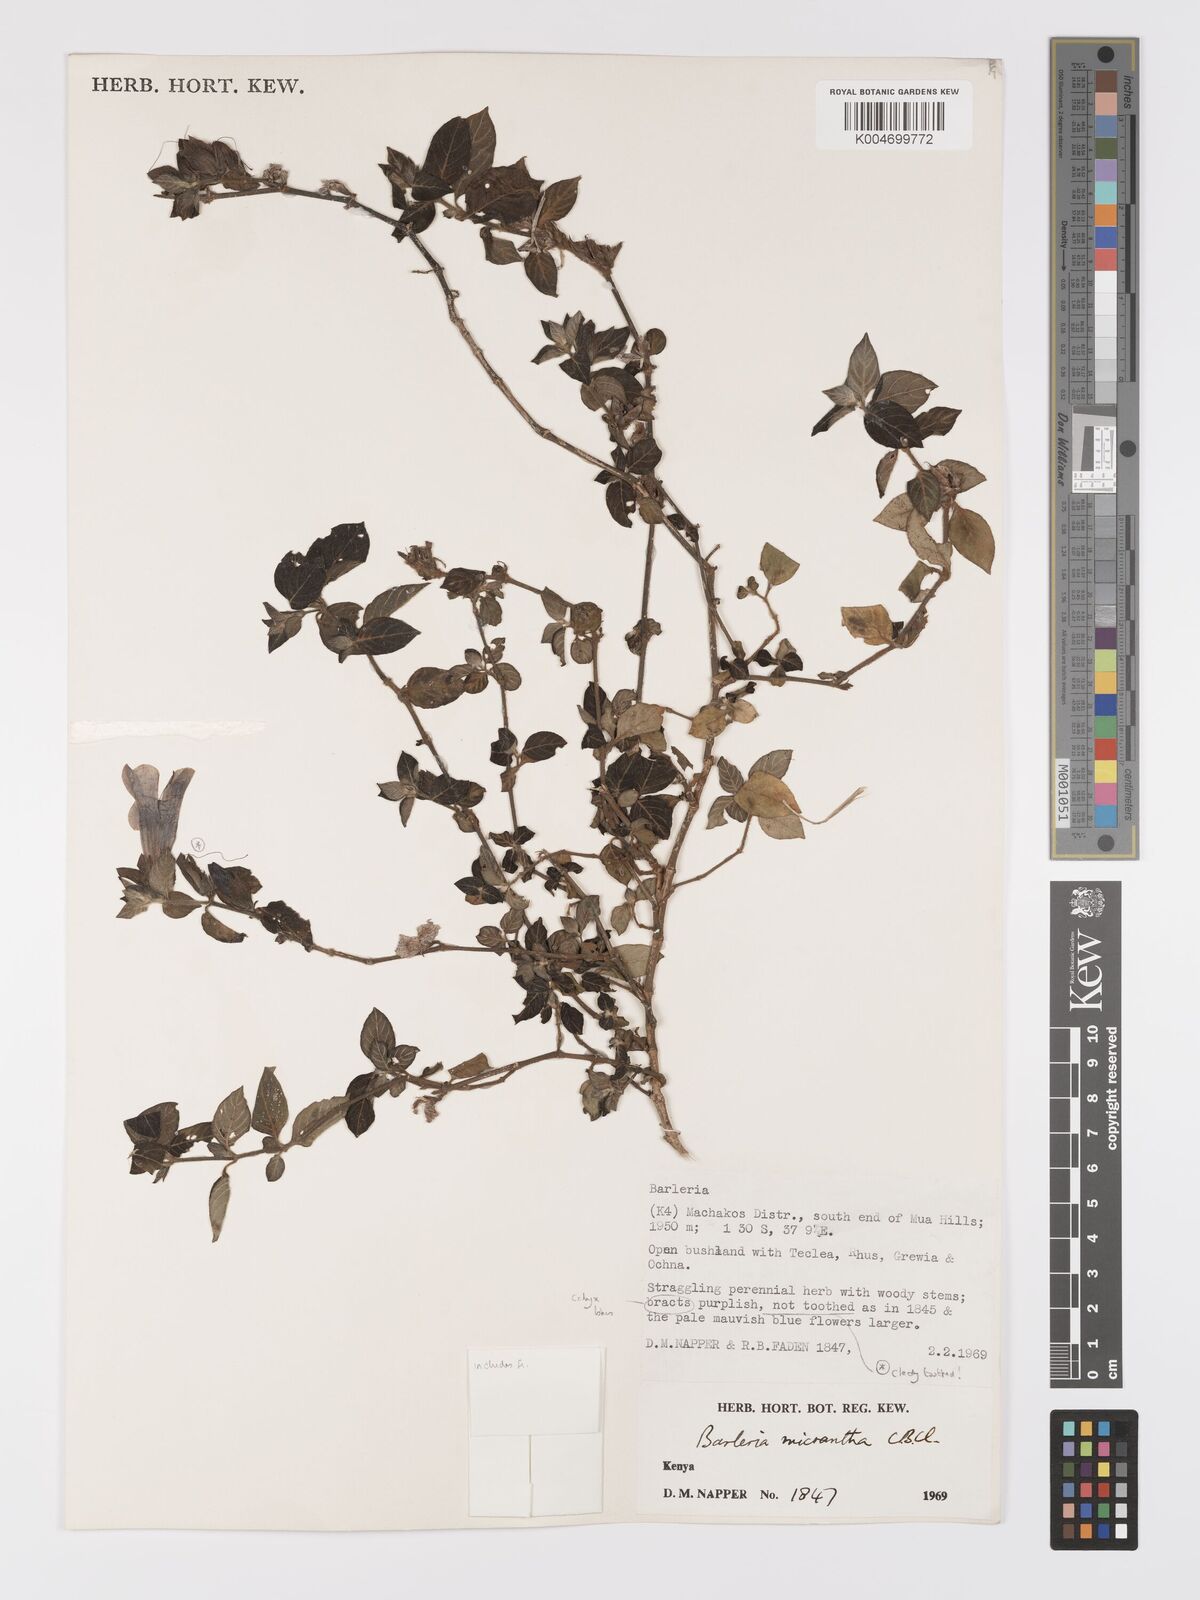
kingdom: Plantae
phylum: Tracheophyta
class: Magnoliopsida
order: Lamiales
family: Acanthaceae
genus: Barleria
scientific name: Barleria ventricosa
